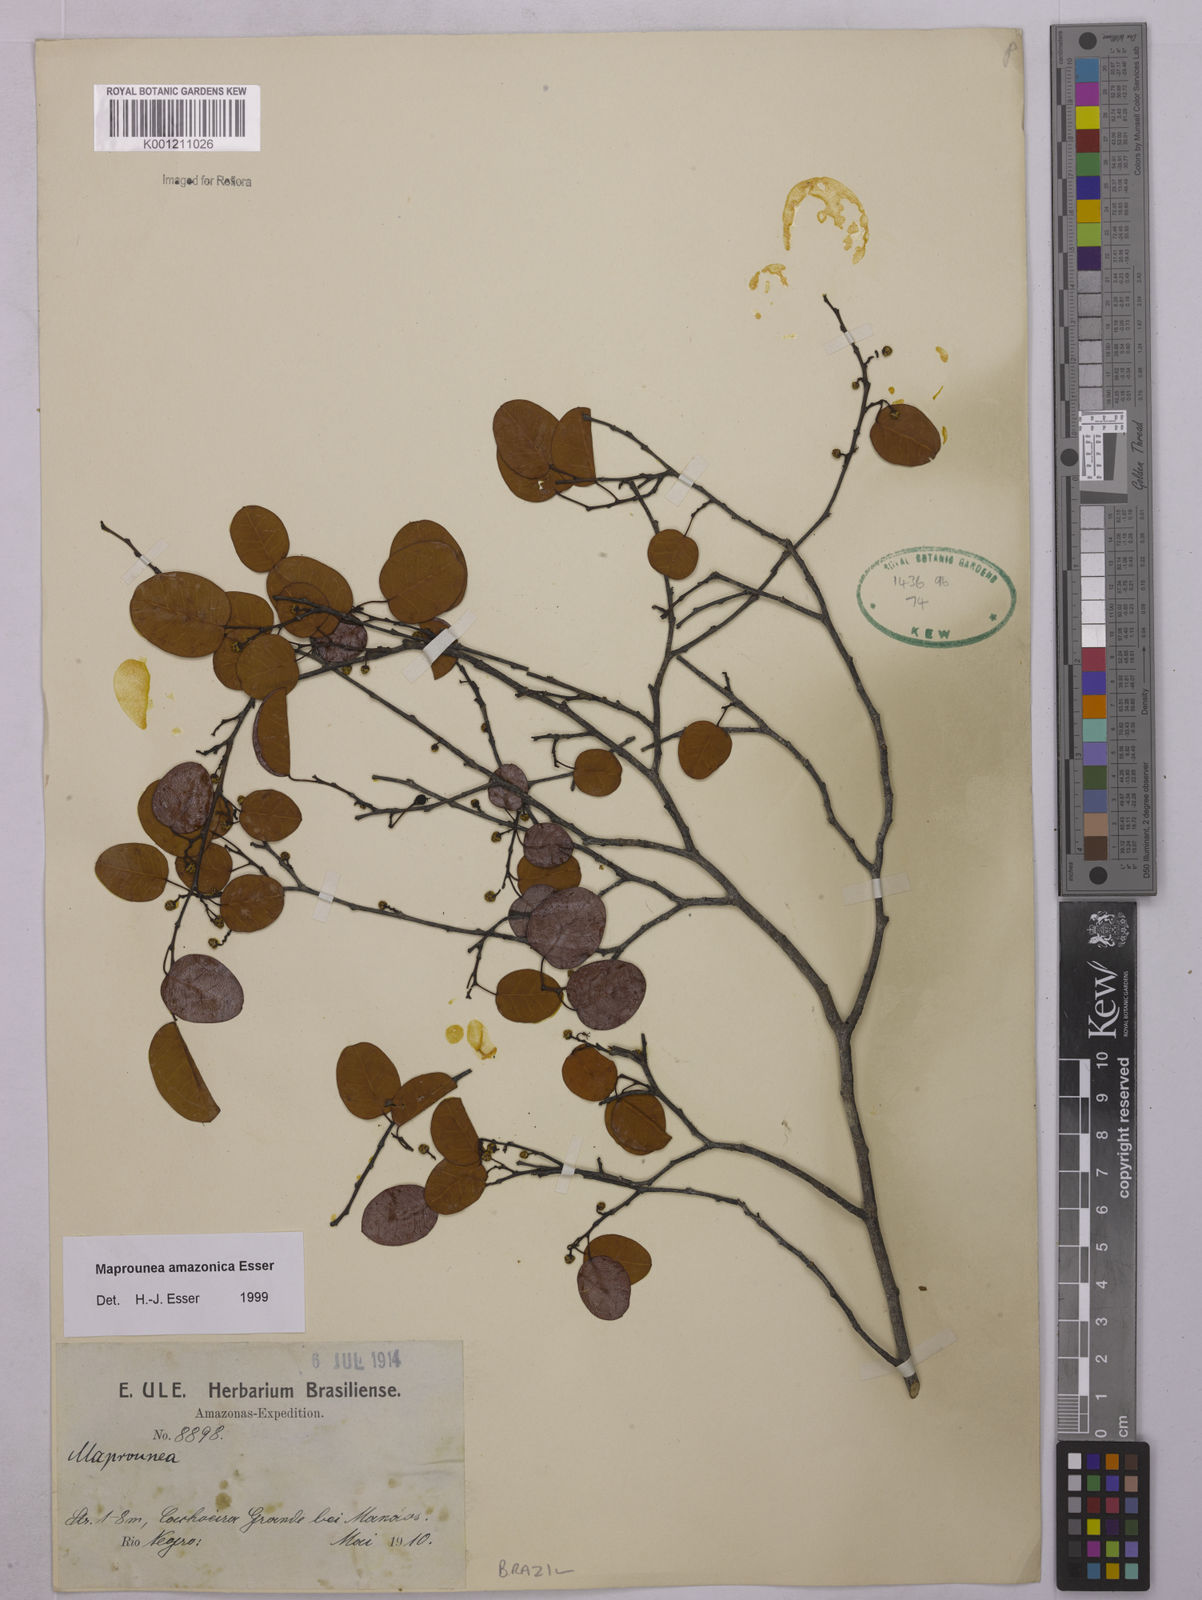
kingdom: Plantae
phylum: Tracheophyta
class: Magnoliopsida
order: Malpighiales
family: Euphorbiaceae
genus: Maprounea
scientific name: Maprounea amazonica
